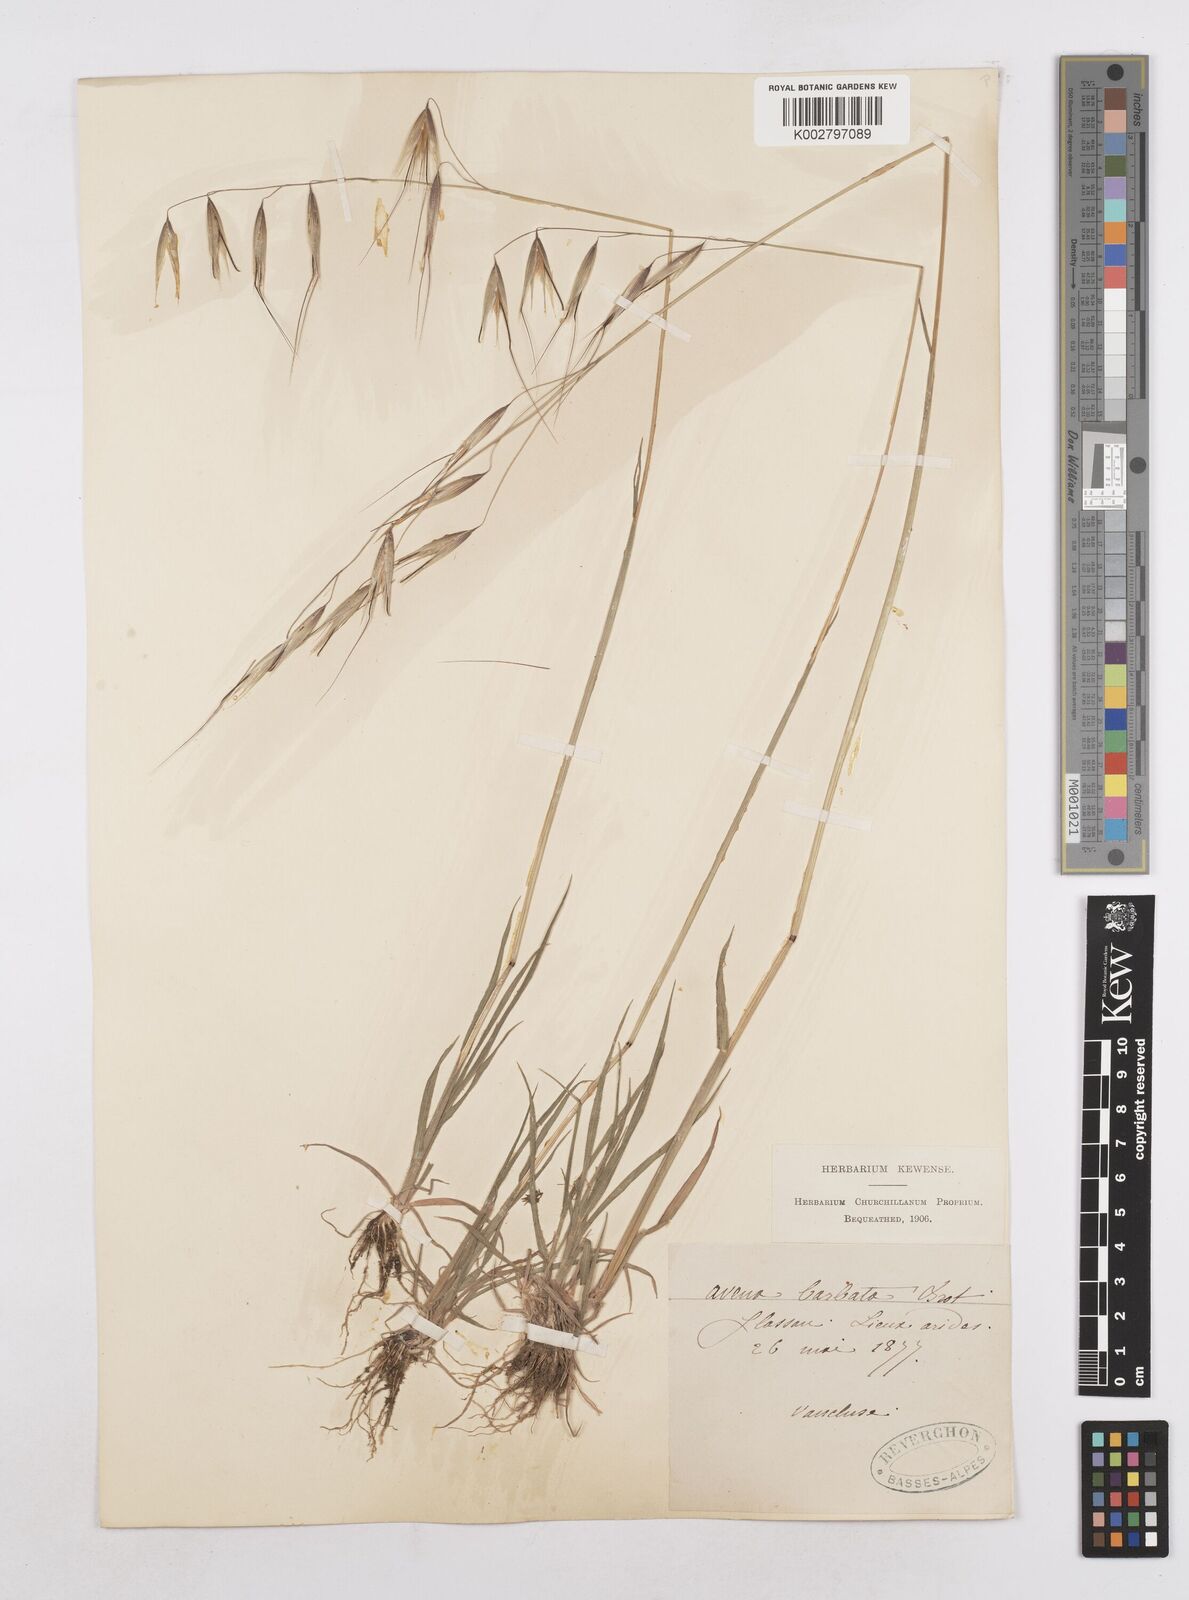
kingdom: Plantae
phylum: Tracheophyta
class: Liliopsida
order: Poales
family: Poaceae
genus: Avena
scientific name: Avena
